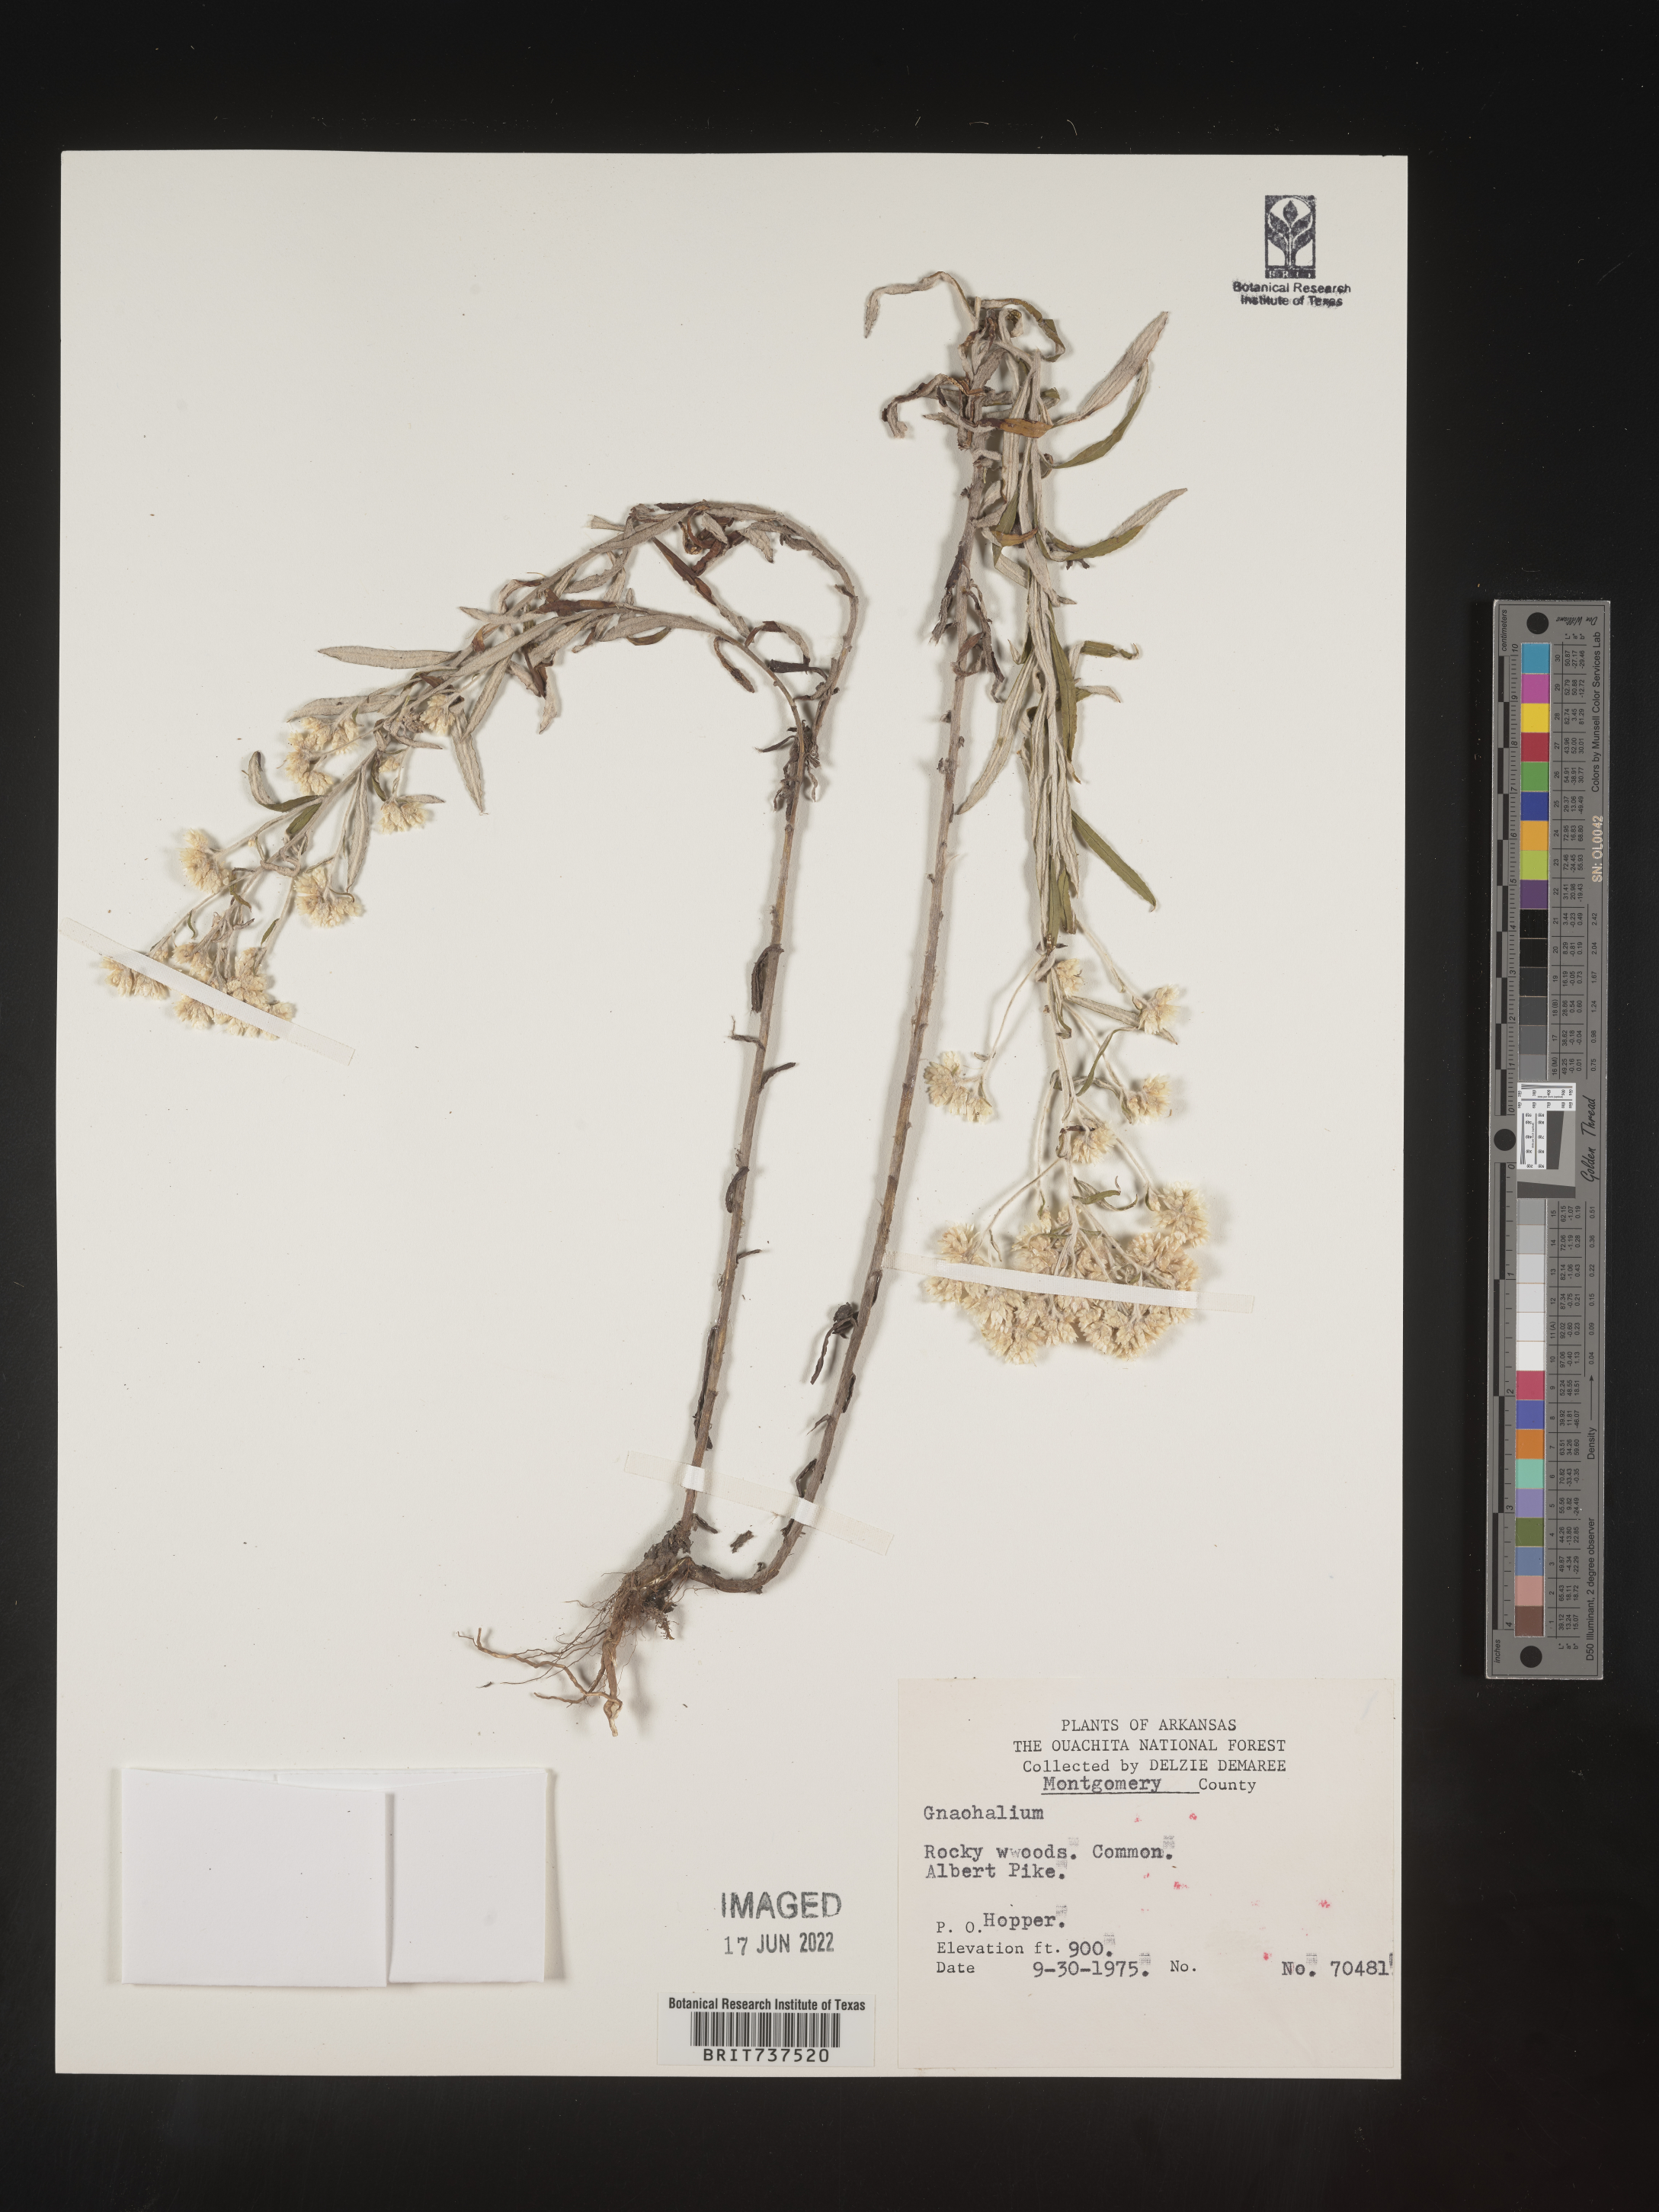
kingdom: Plantae
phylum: Tracheophyta
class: Magnoliopsida
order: Asterales
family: Asteraceae
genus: Pseudognaphalium
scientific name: Pseudognaphalium obtusifolium
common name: Eastern rabbit-tobacco
